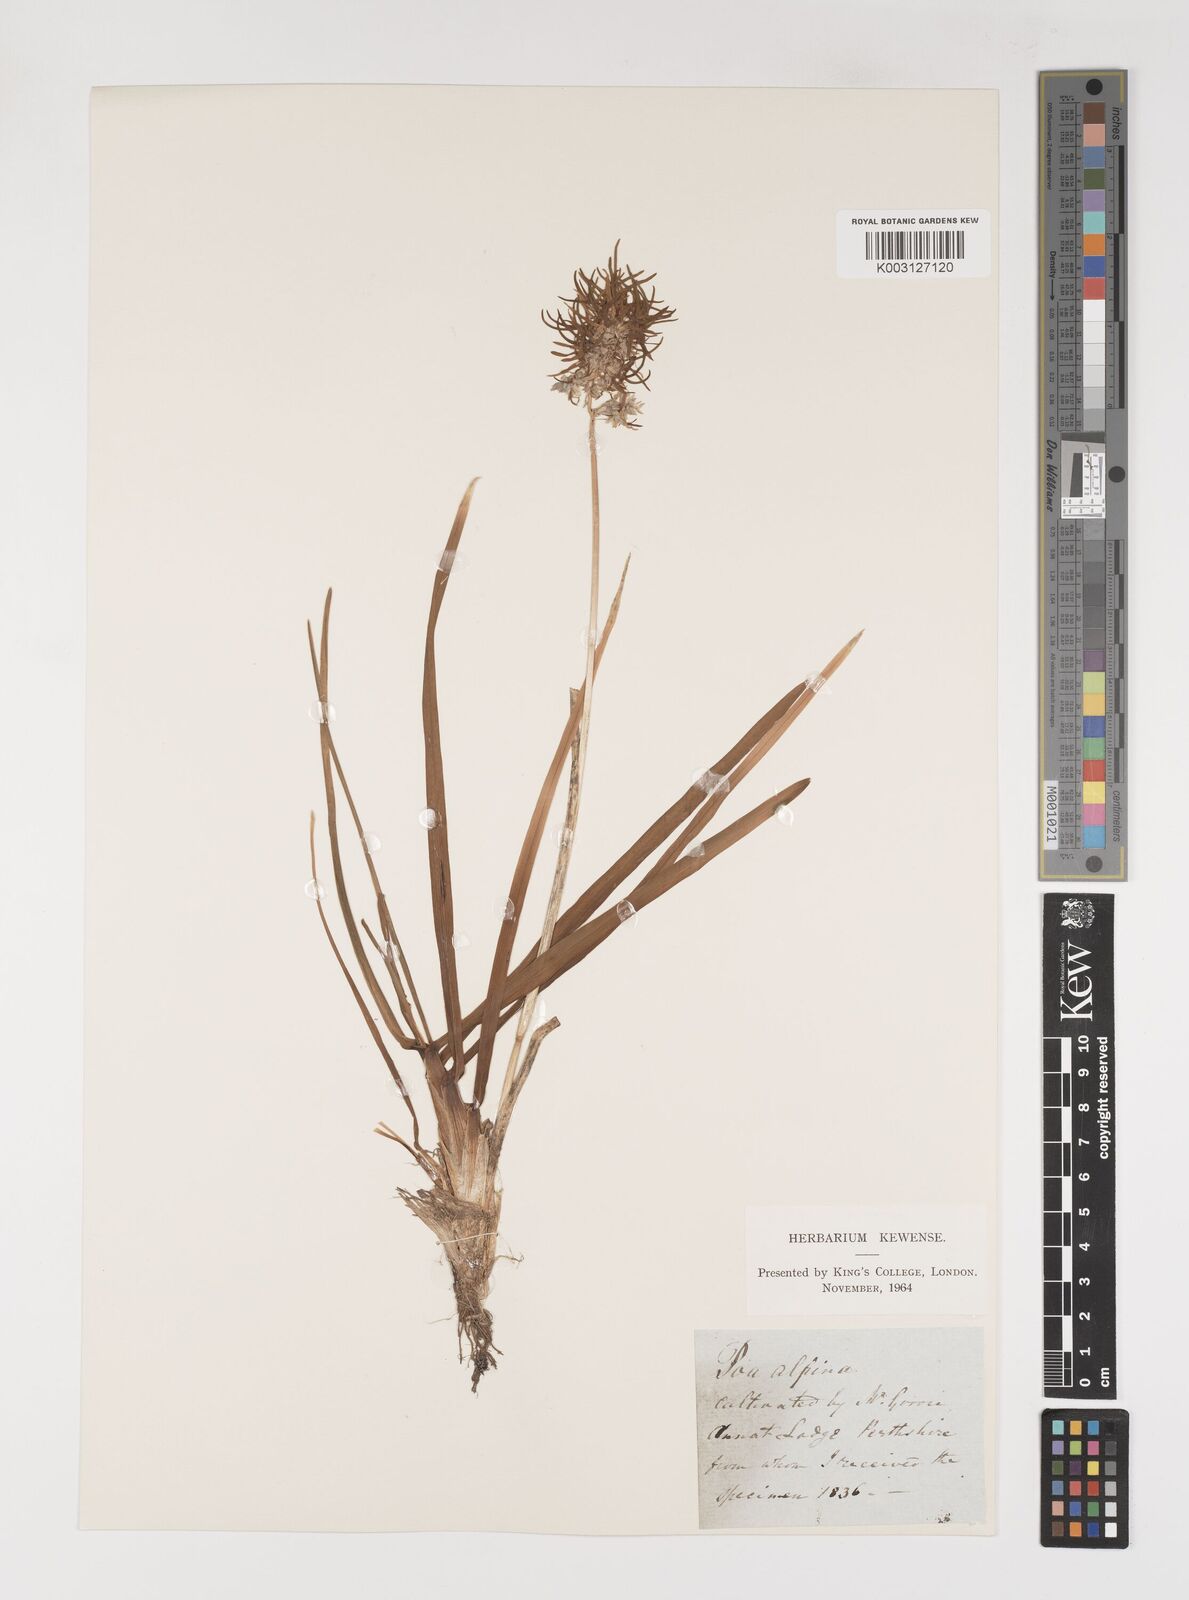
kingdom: Plantae
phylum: Tracheophyta
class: Liliopsida
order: Poales
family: Poaceae
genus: Poa
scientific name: Poa alpina
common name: Alpine bluegrass
